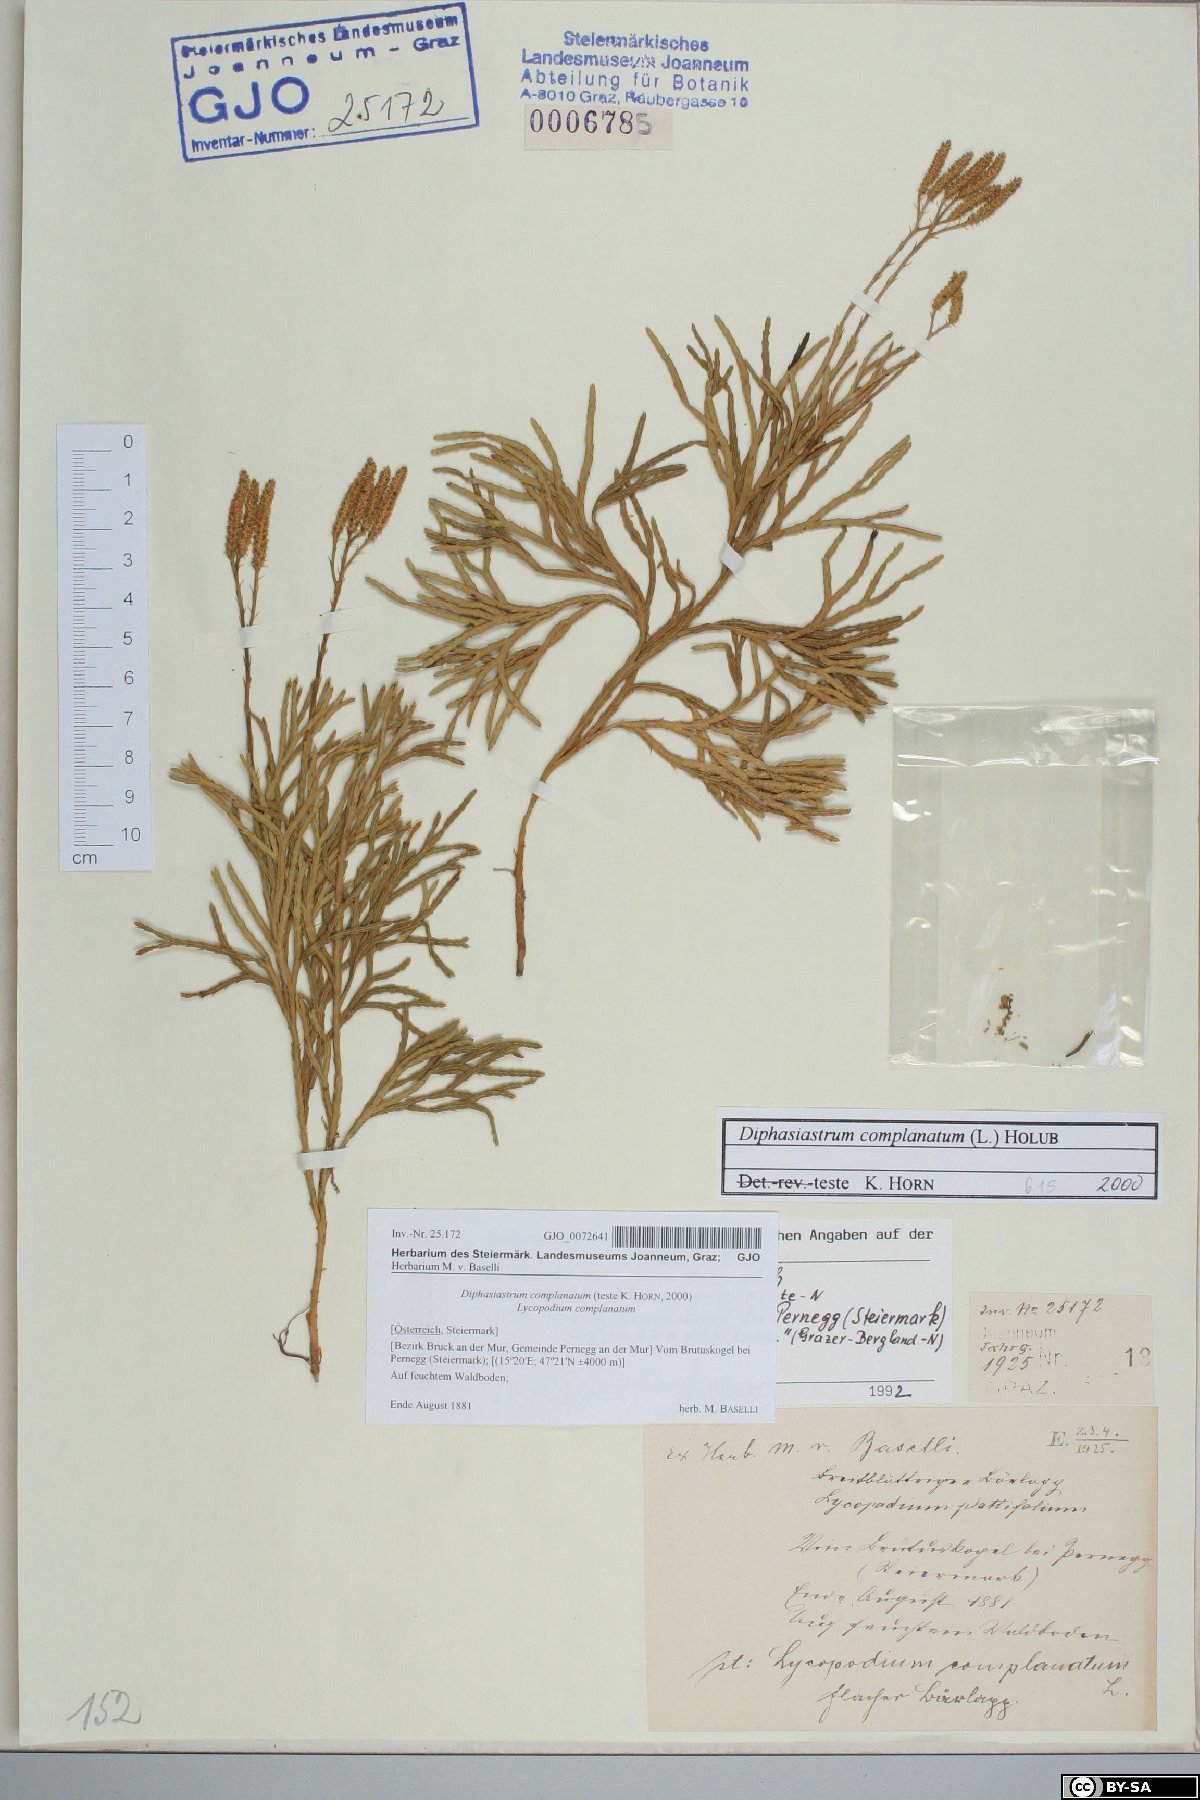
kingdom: Plantae
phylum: Tracheophyta
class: Lycopodiopsida
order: Lycopodiales
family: Lycopodiaceae
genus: Diphasiastrum
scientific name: Diphasiastrum complanatum
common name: Northern running-pine
